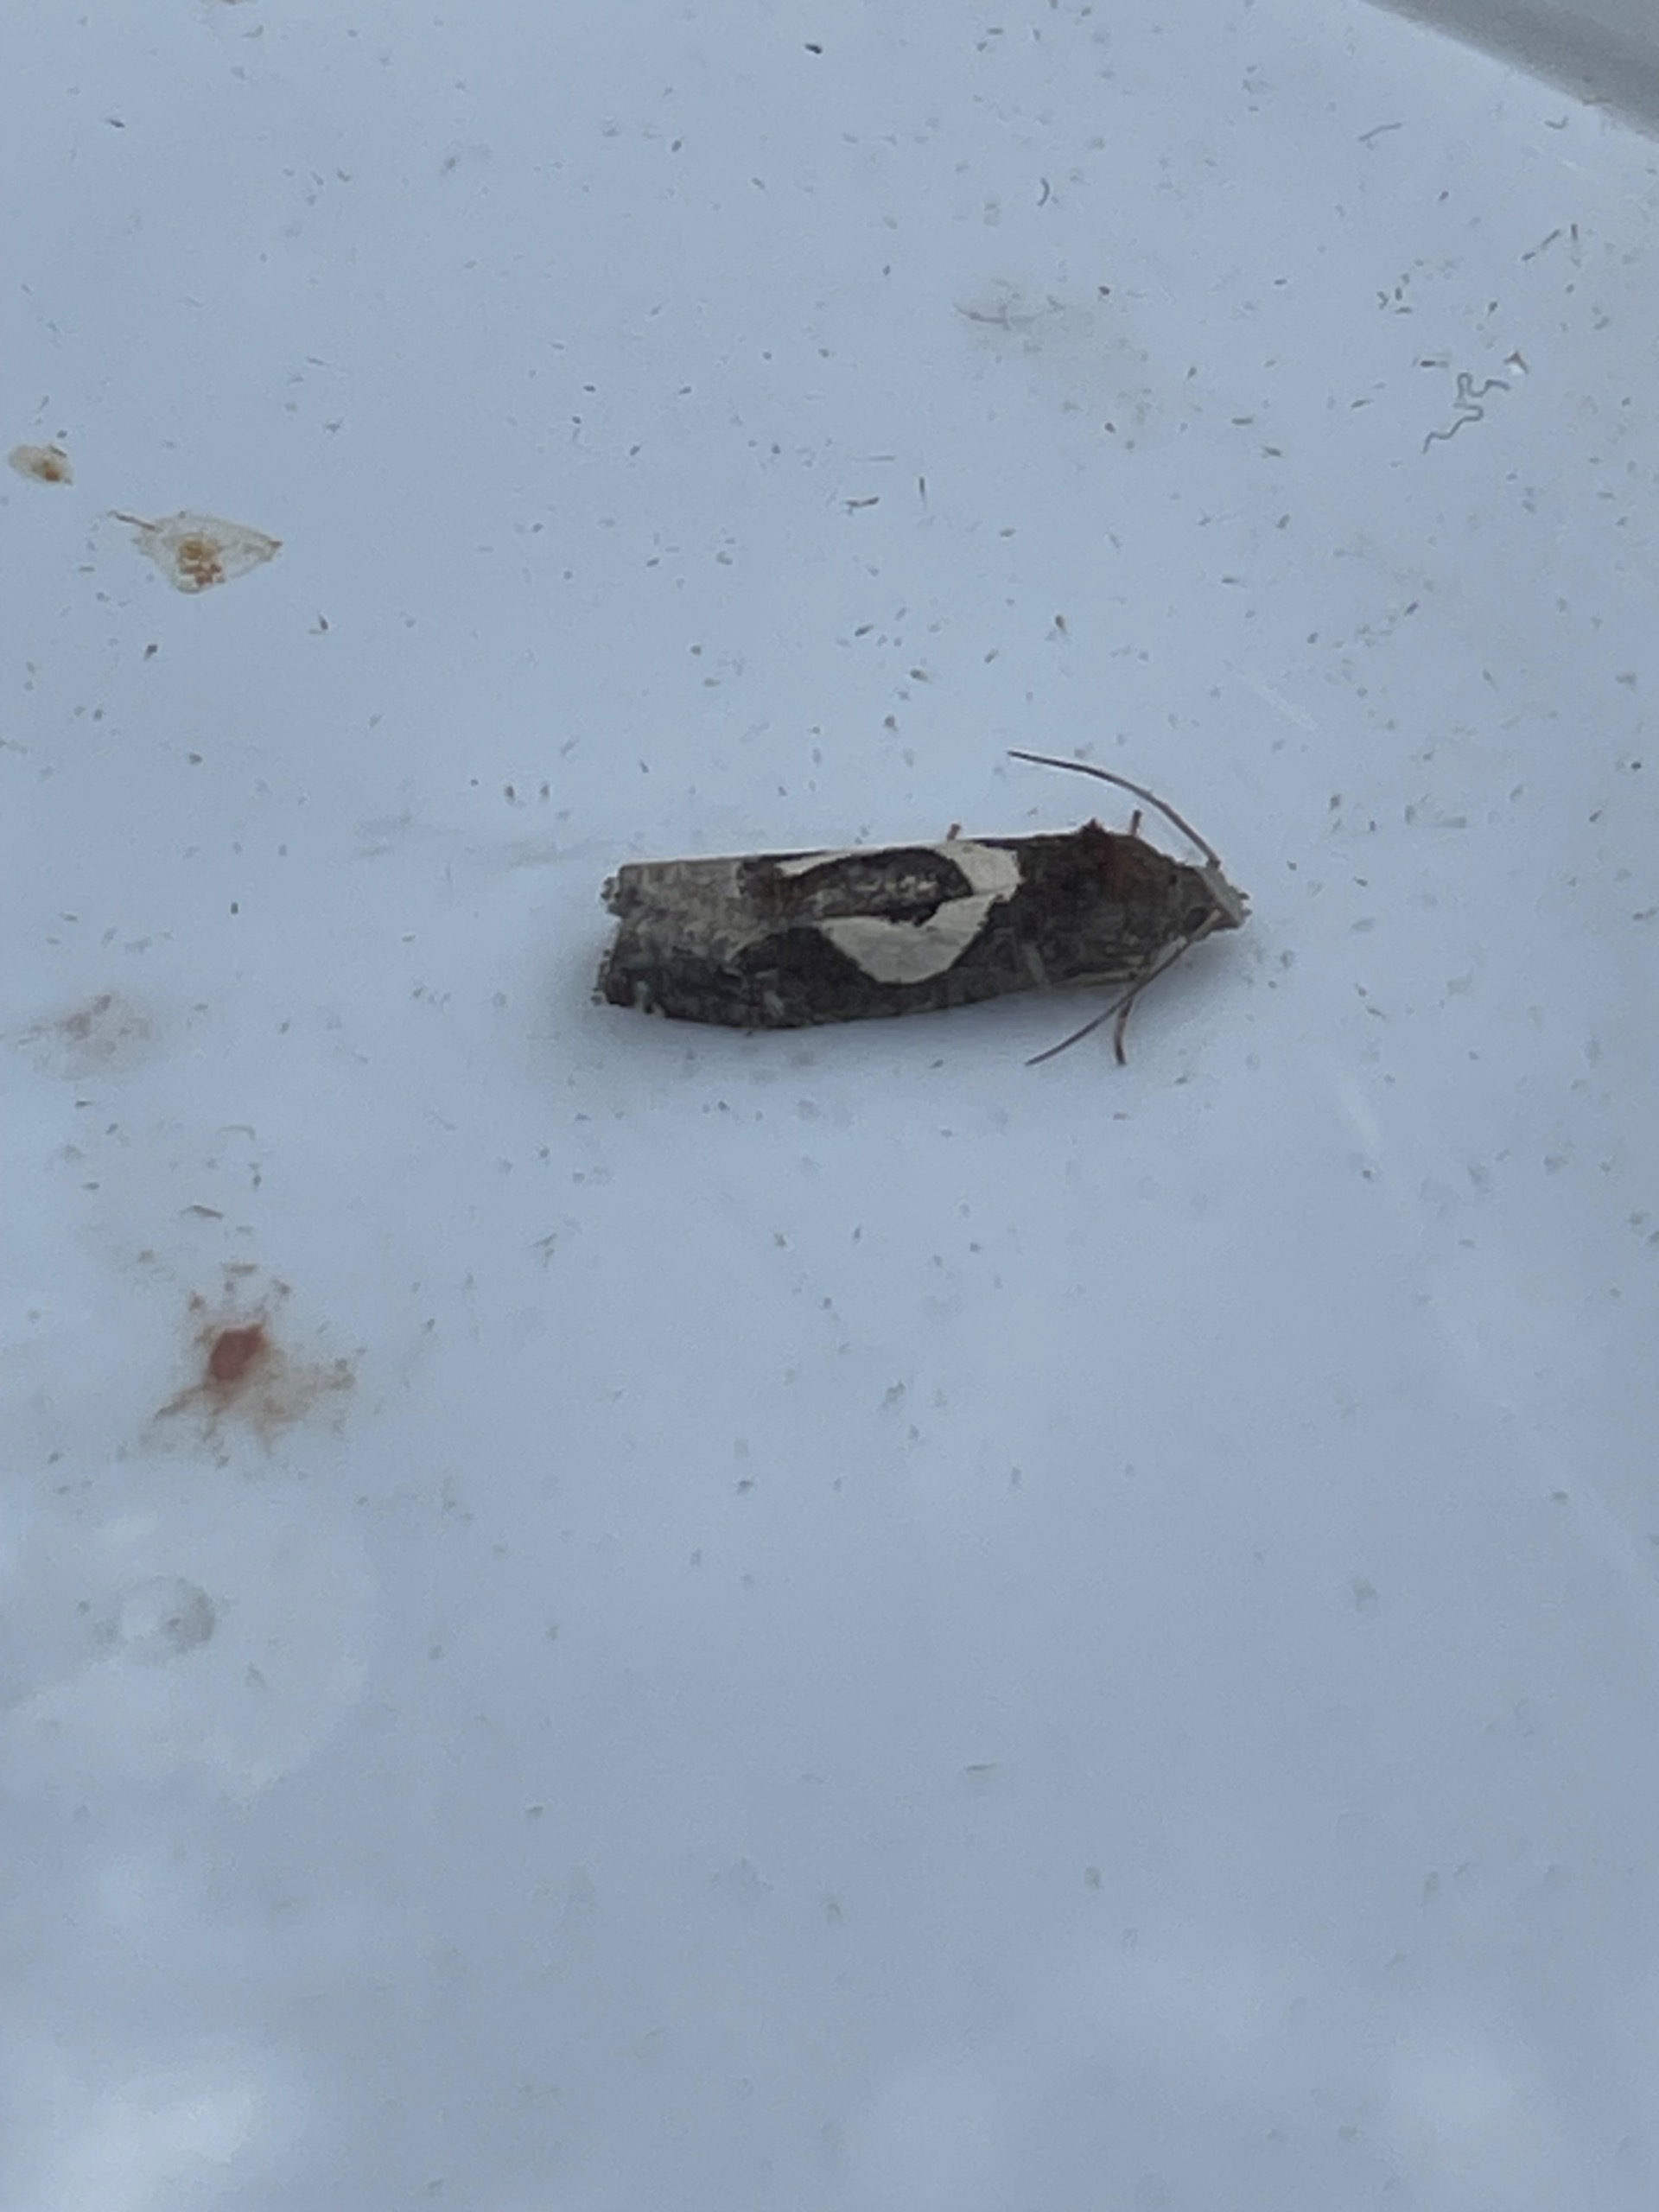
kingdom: Animalia
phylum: Arthropoda
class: Insecta
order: Lepidoptera
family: Tortricidae
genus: Epiblema
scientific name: Epiblema foenella
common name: Gråbynkegallevikler
